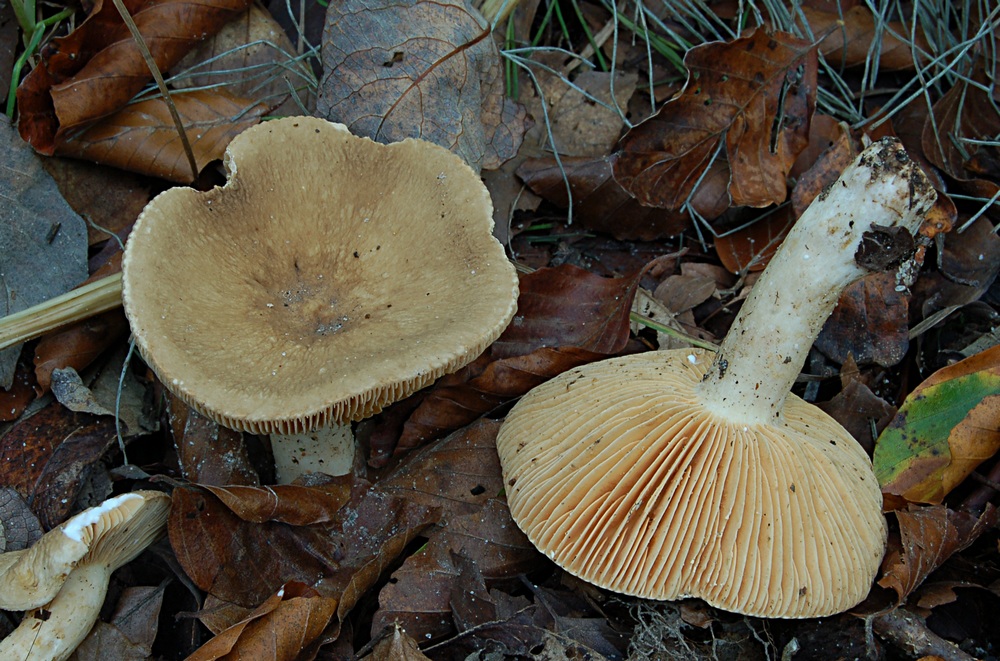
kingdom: Fungi
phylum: Basidiomycota
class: Agaricomycetes
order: Russulales
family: Russulaceae
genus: Lactarius
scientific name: Lactarius pterosporus
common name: vingesporet mælkehat
